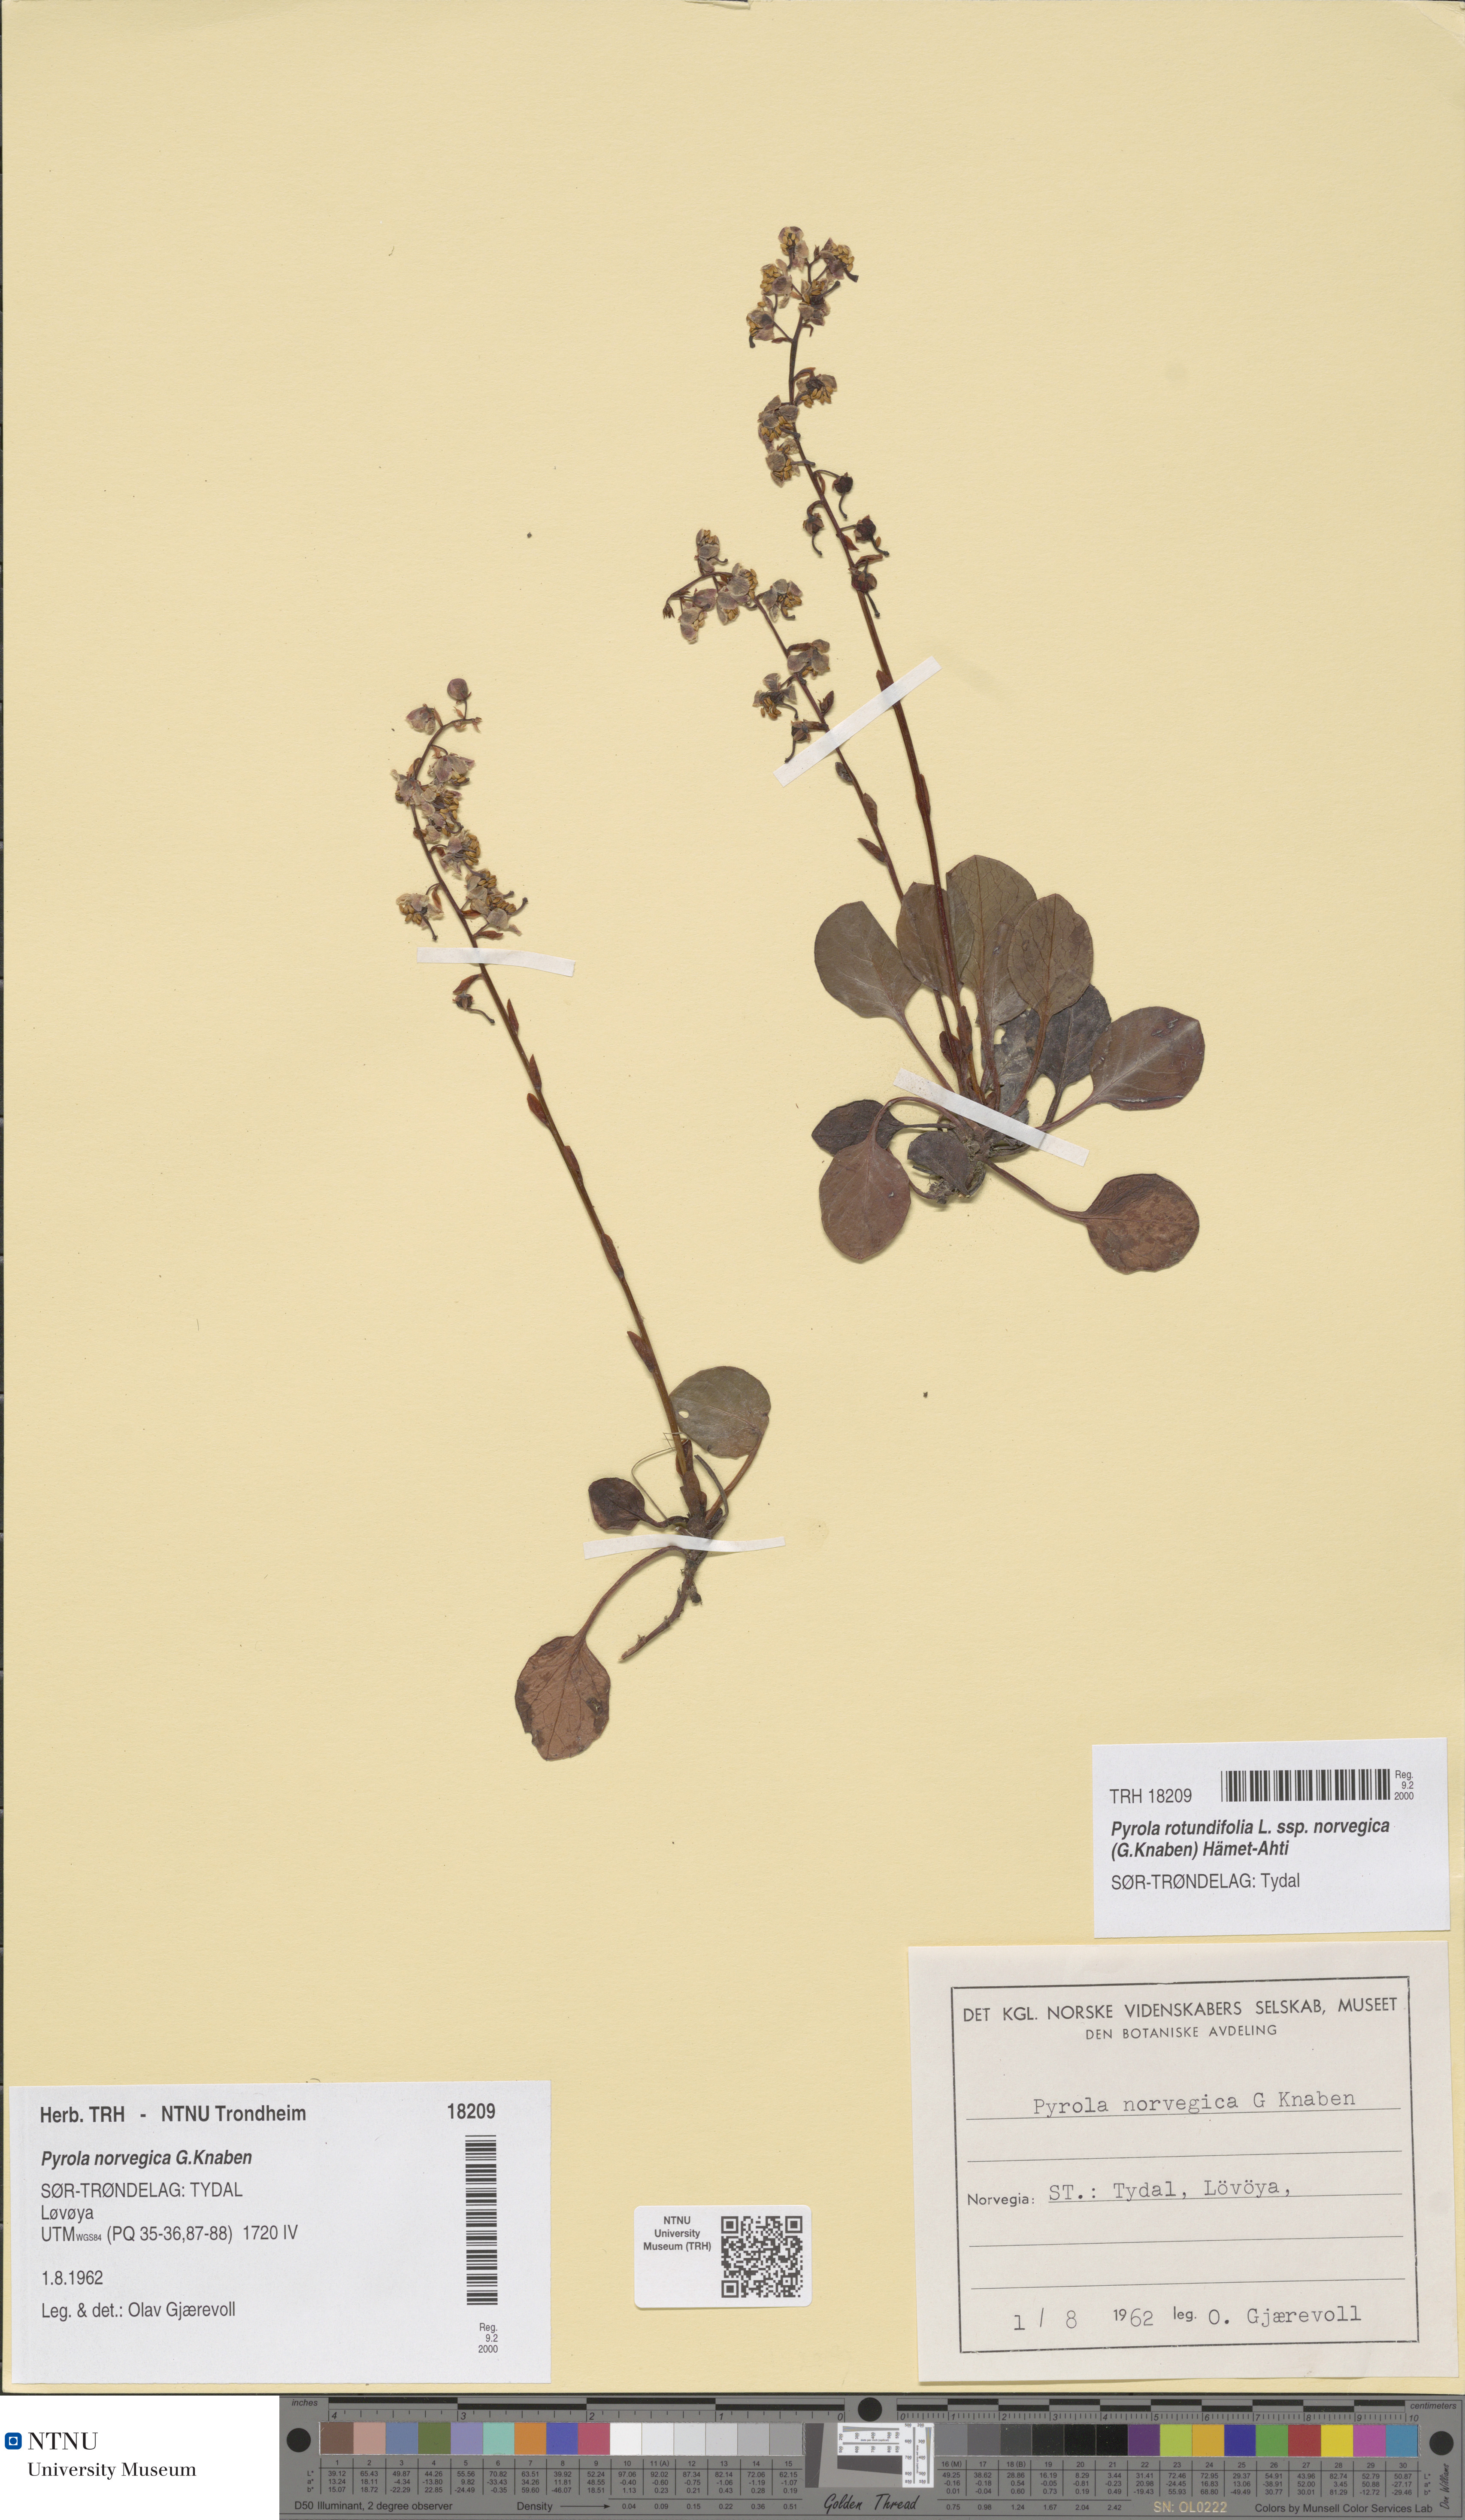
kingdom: Plantae
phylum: Tracheophyta
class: Magnoliopsida
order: Ericales
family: Ericaceae
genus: Pyrola
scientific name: Pyrola rotundifolia
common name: Round-leaved wintergreen
